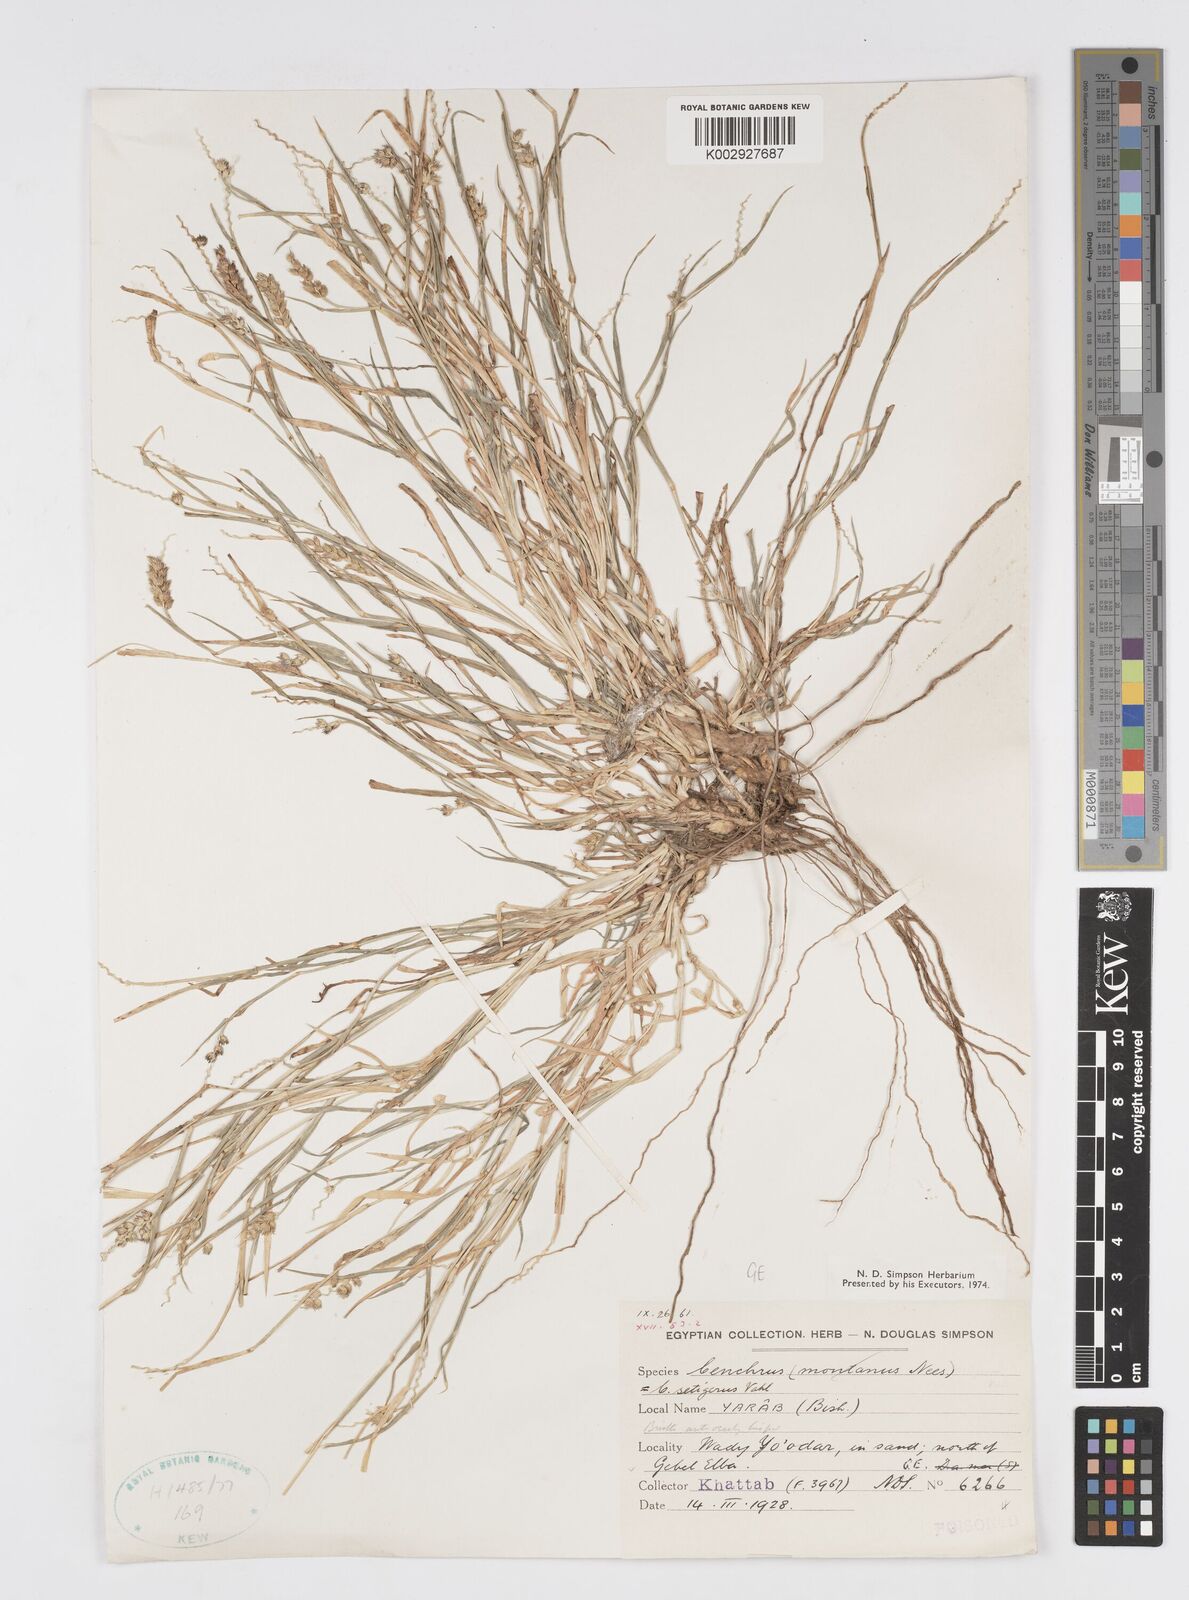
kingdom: Plantae
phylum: Tracheophyta
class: Liliopsida
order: Poales
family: Poaceae
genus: Cenchrus
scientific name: Cenchrus setigerus
